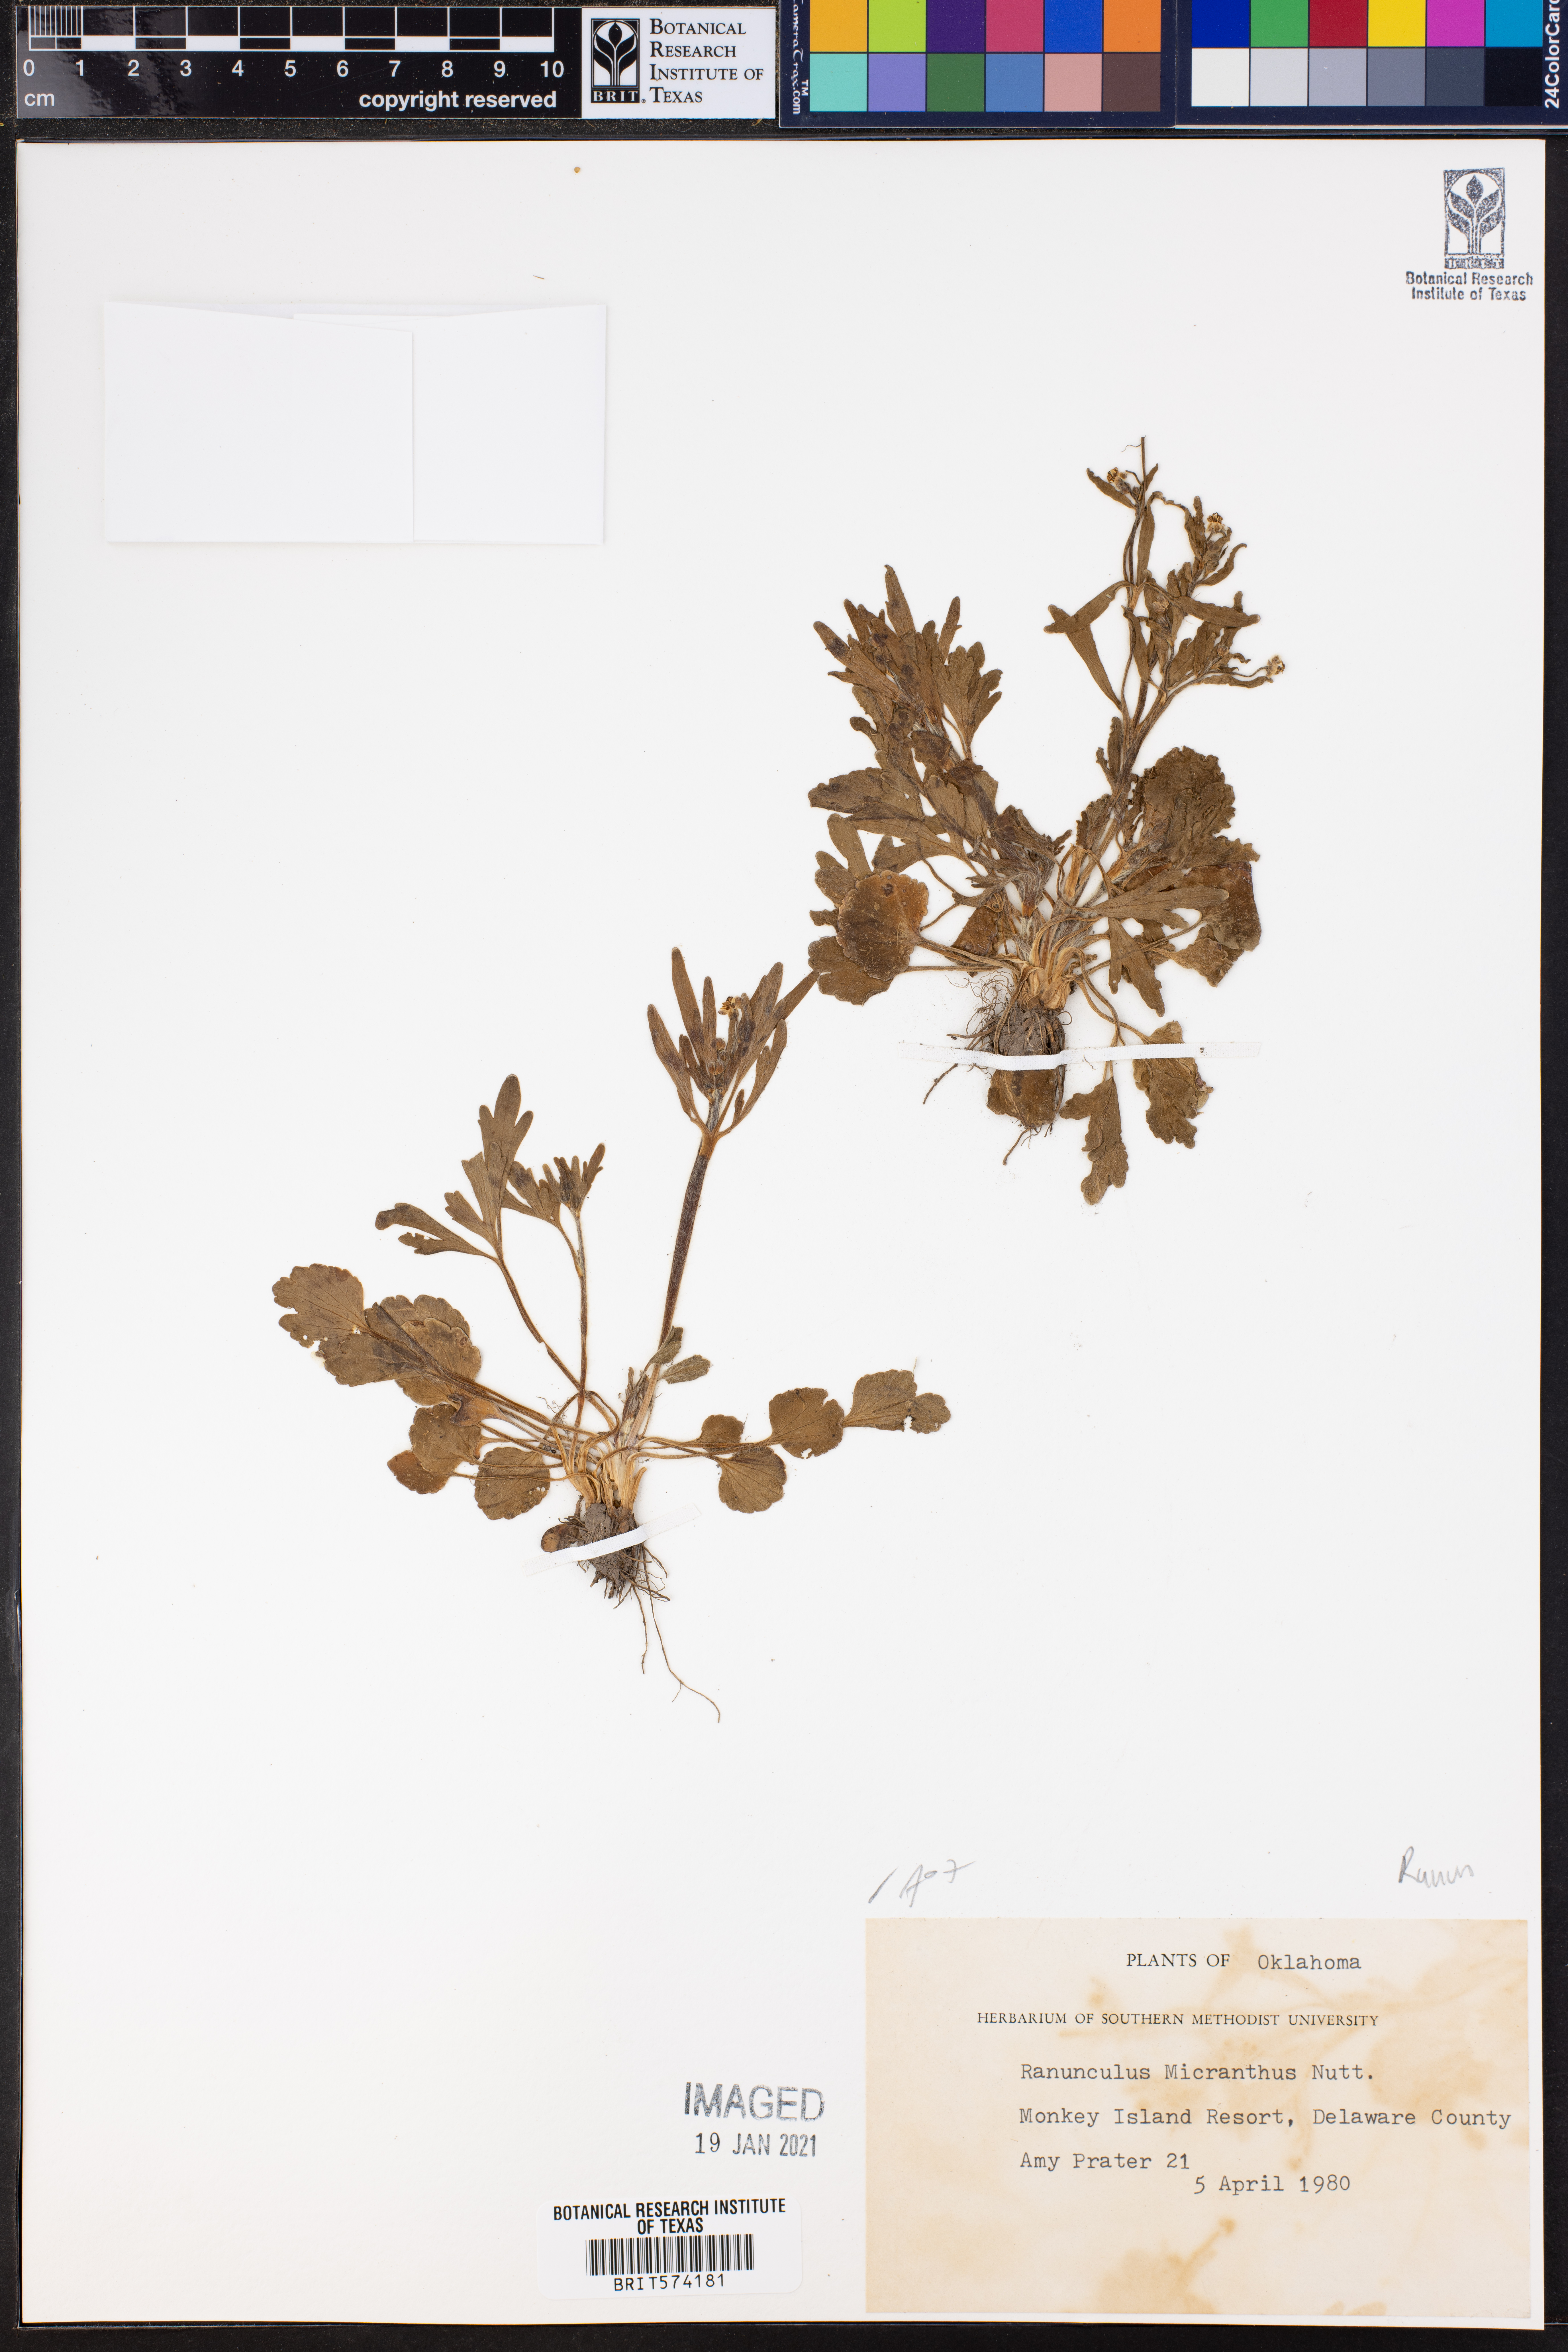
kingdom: Plantae
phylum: Tracheophyta
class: Magnoliopsida
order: Ranunculales
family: Ranunculaceae
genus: Ranunculus
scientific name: Ranunculus micranthus
